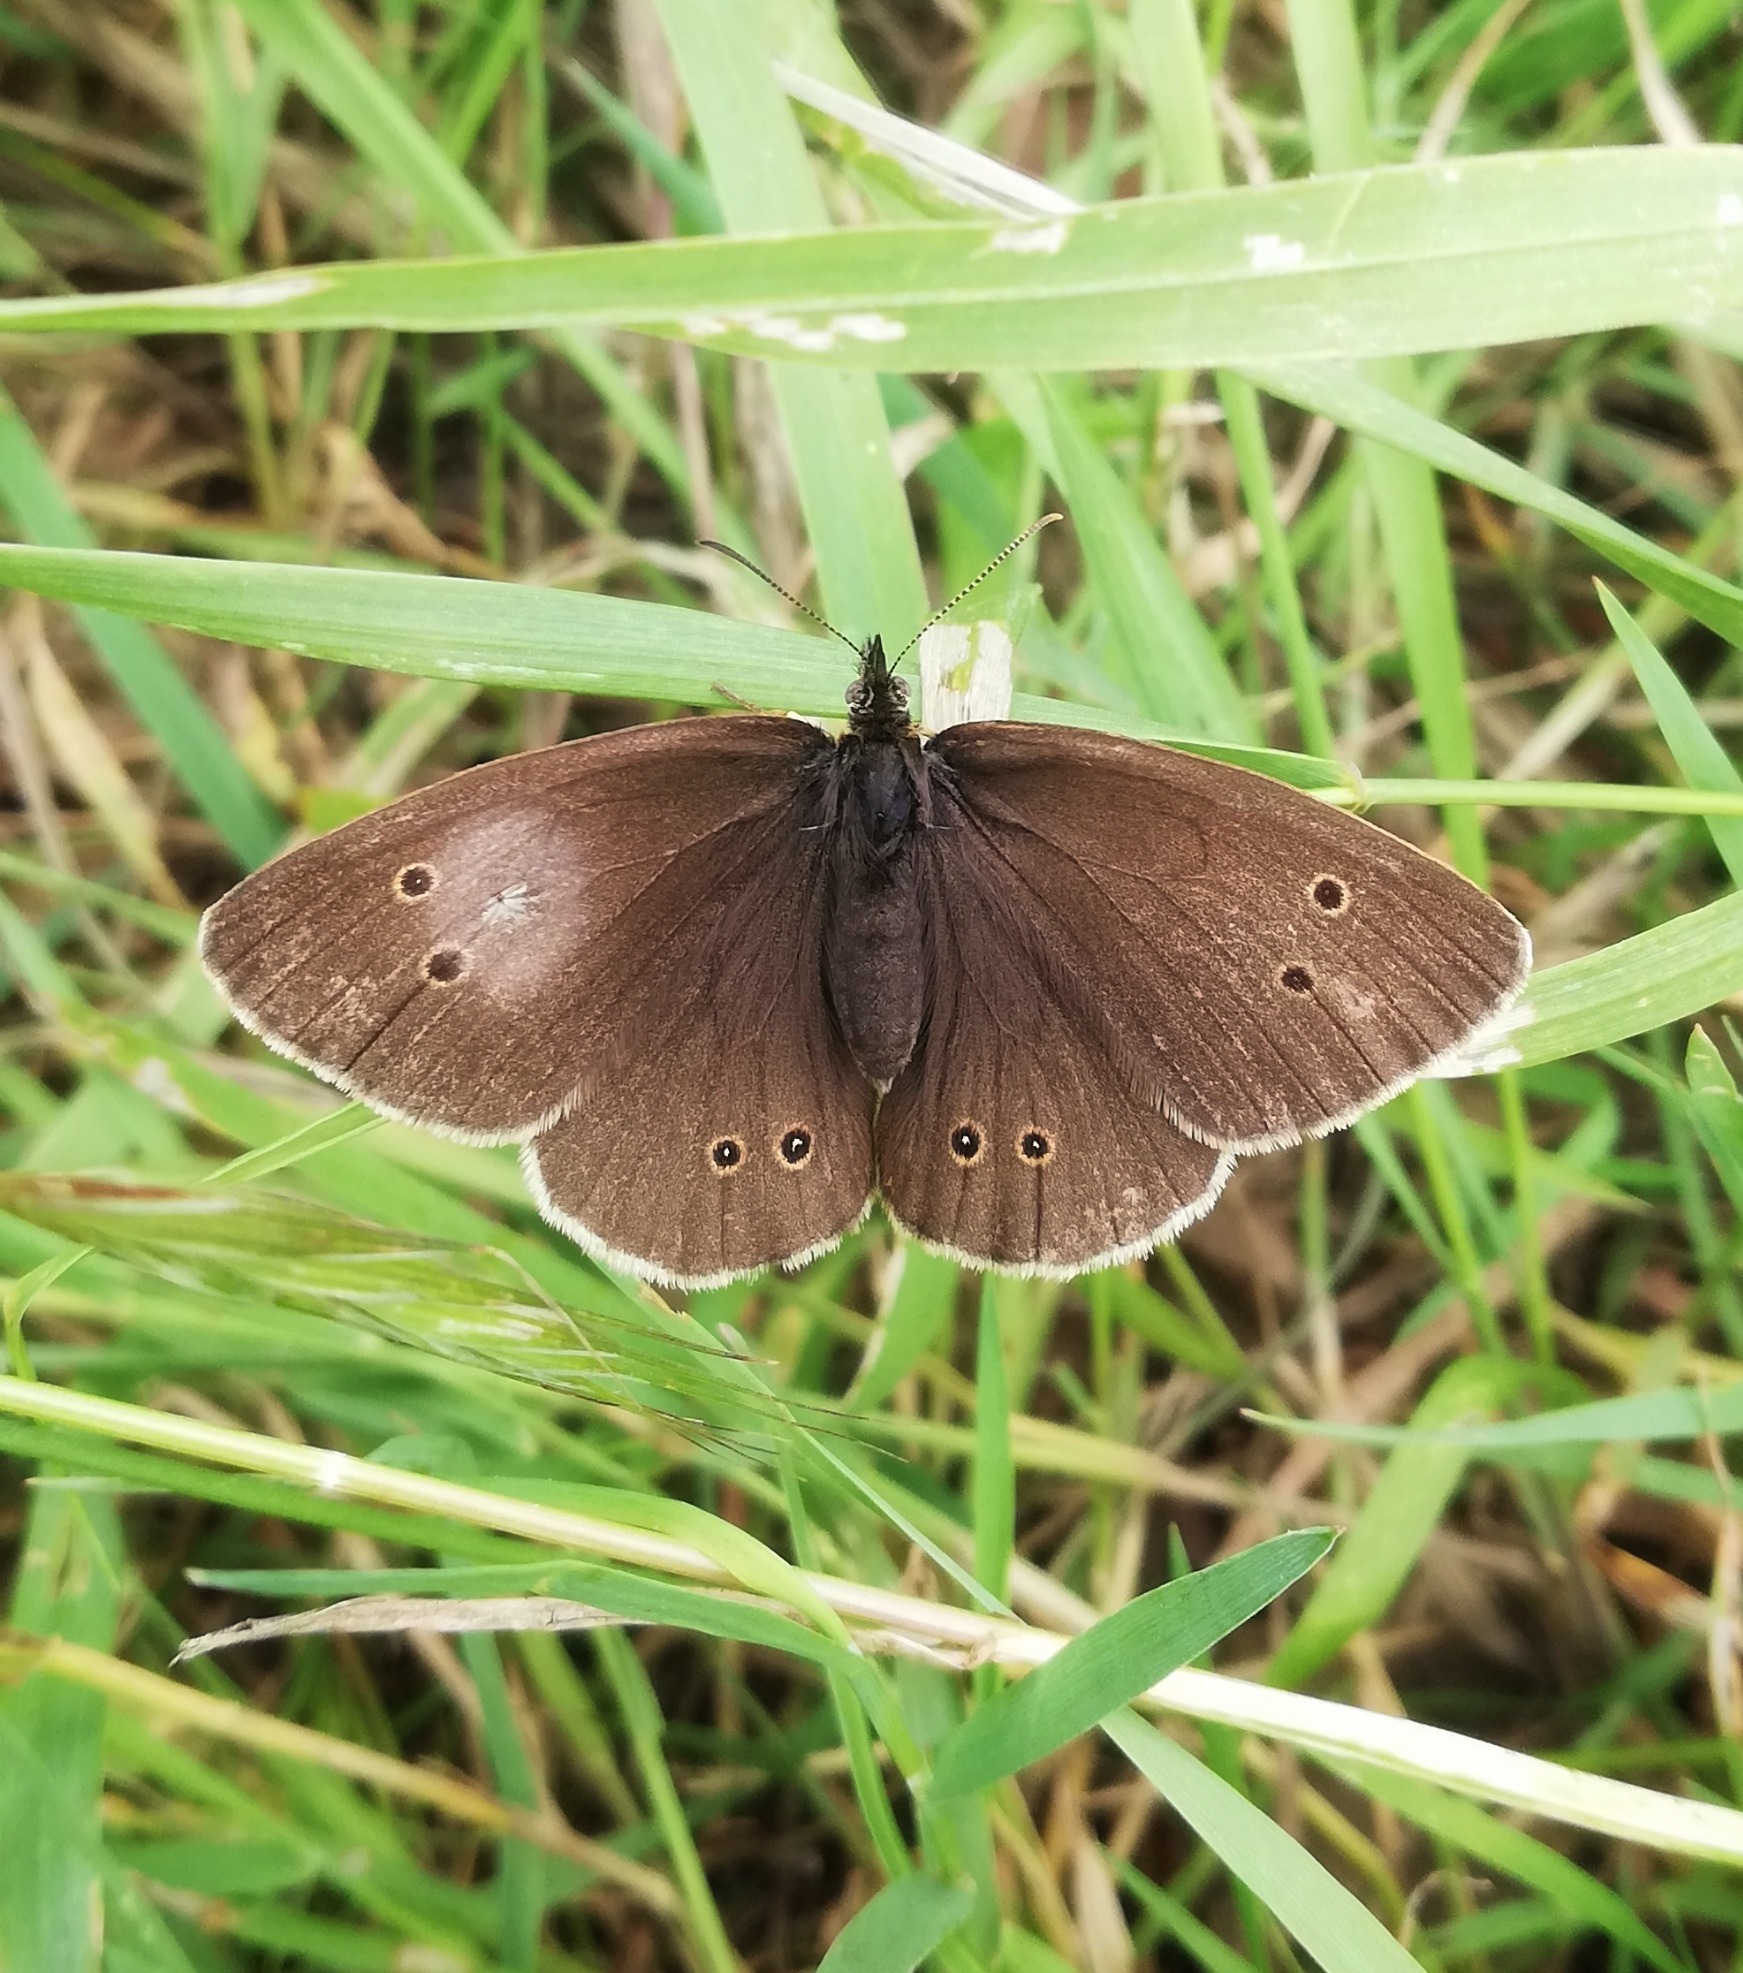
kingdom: Animalia
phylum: Arthropoda
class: Insecta
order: Lepidoptera
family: Nymphalidae
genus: Aphantopus
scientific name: Aphantopus hyperantus
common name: Engrandøje
